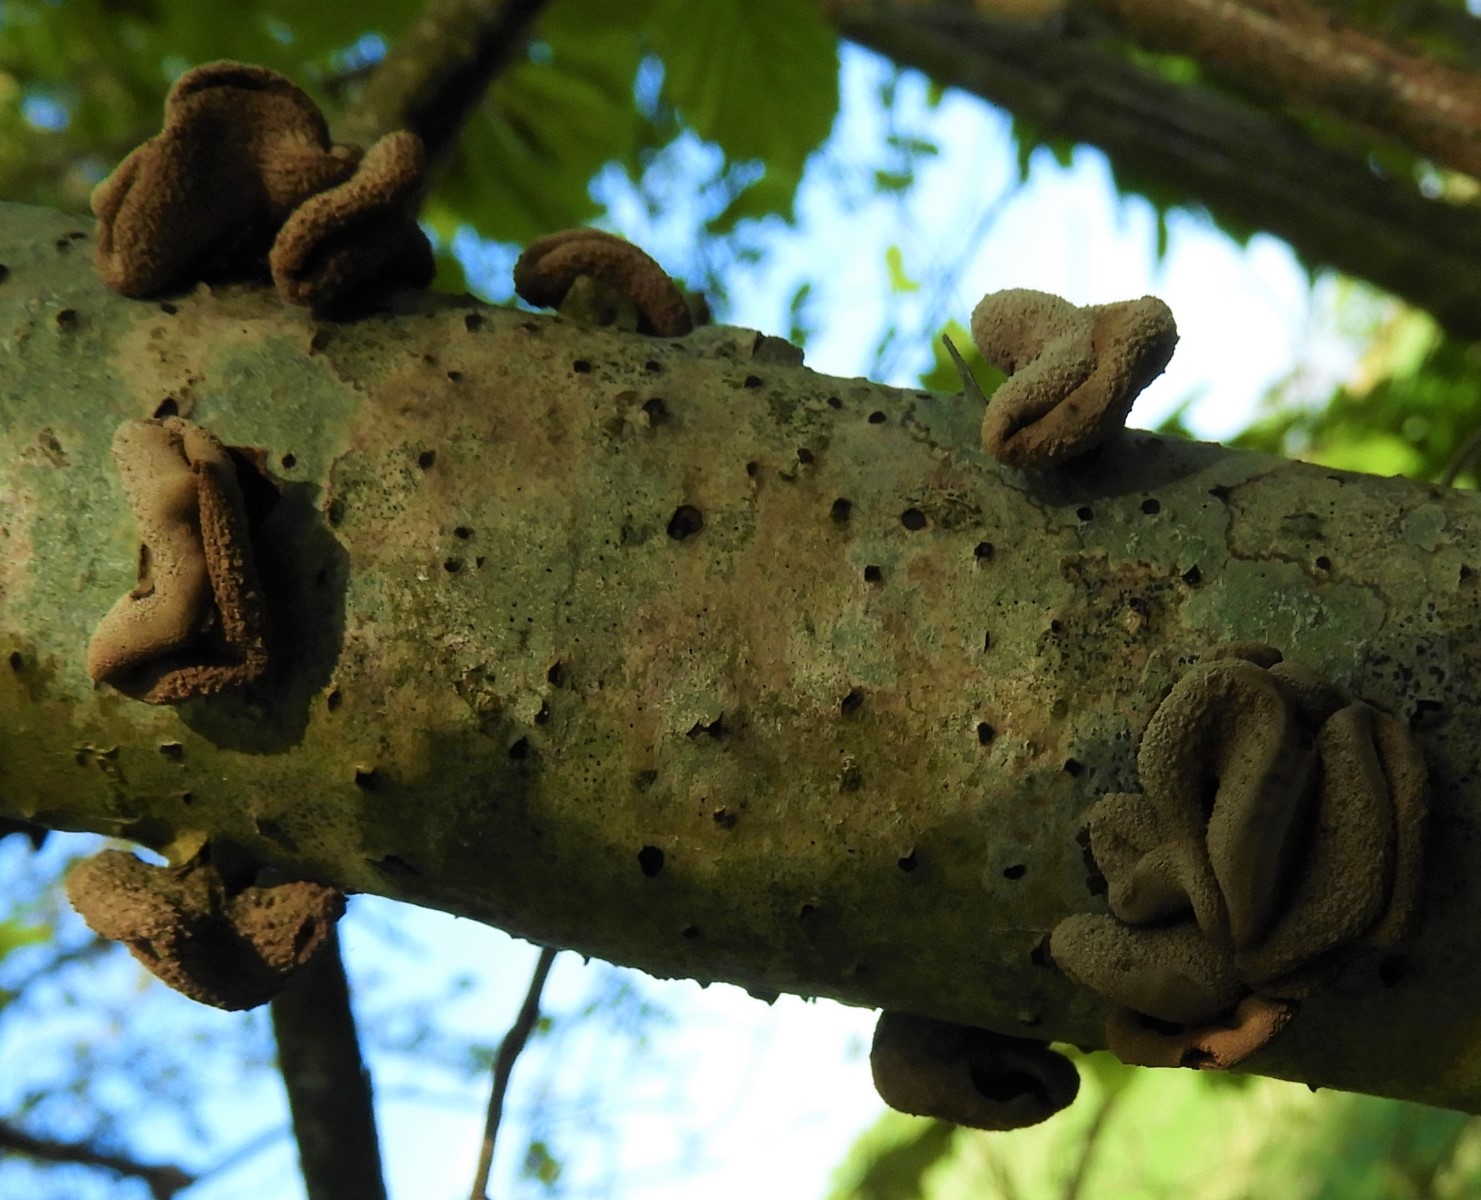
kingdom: Fungi
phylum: Ascomycota
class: Leotiomycetes
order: Helotiales
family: Cenangiaceae
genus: Encoelia
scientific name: Encoelia furfuracea
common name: hassel-læderskive
